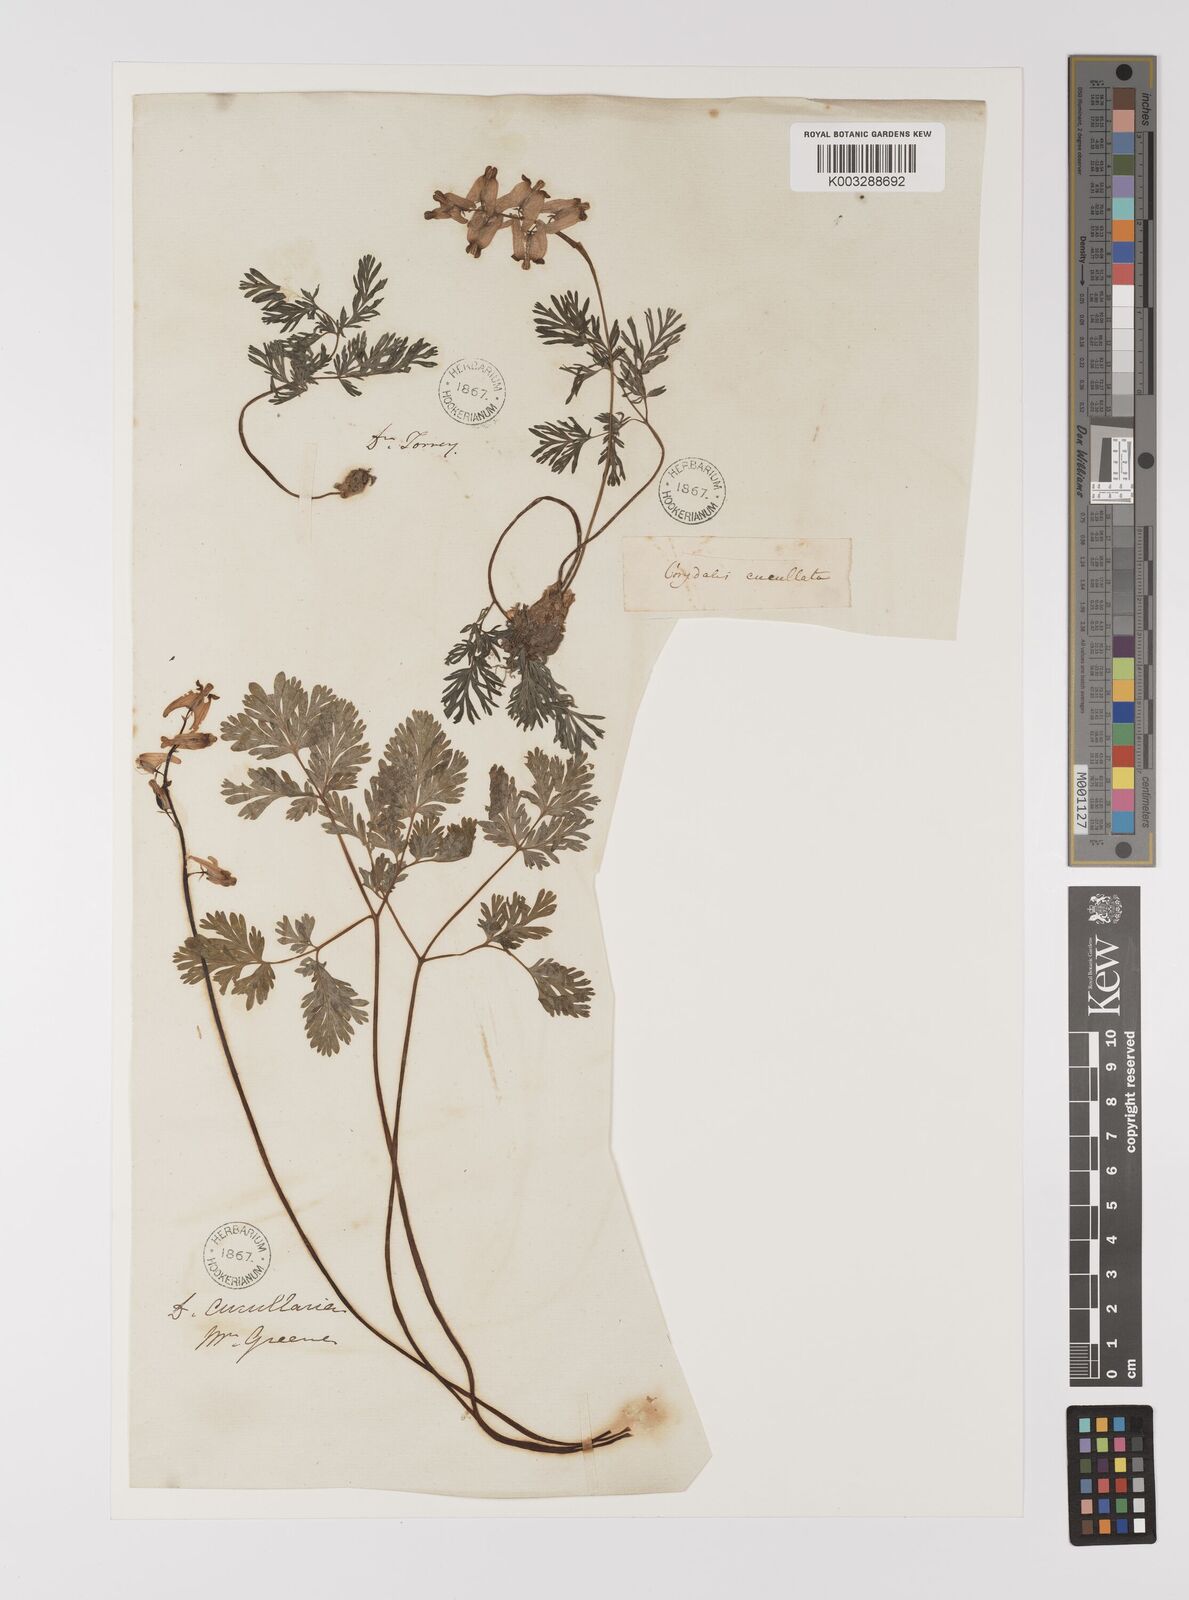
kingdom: Plantae
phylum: Tracheophyta
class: Magnoliopsida
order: Ranunculales
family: Papaveraceae
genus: Corydalis
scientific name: Corydalis
